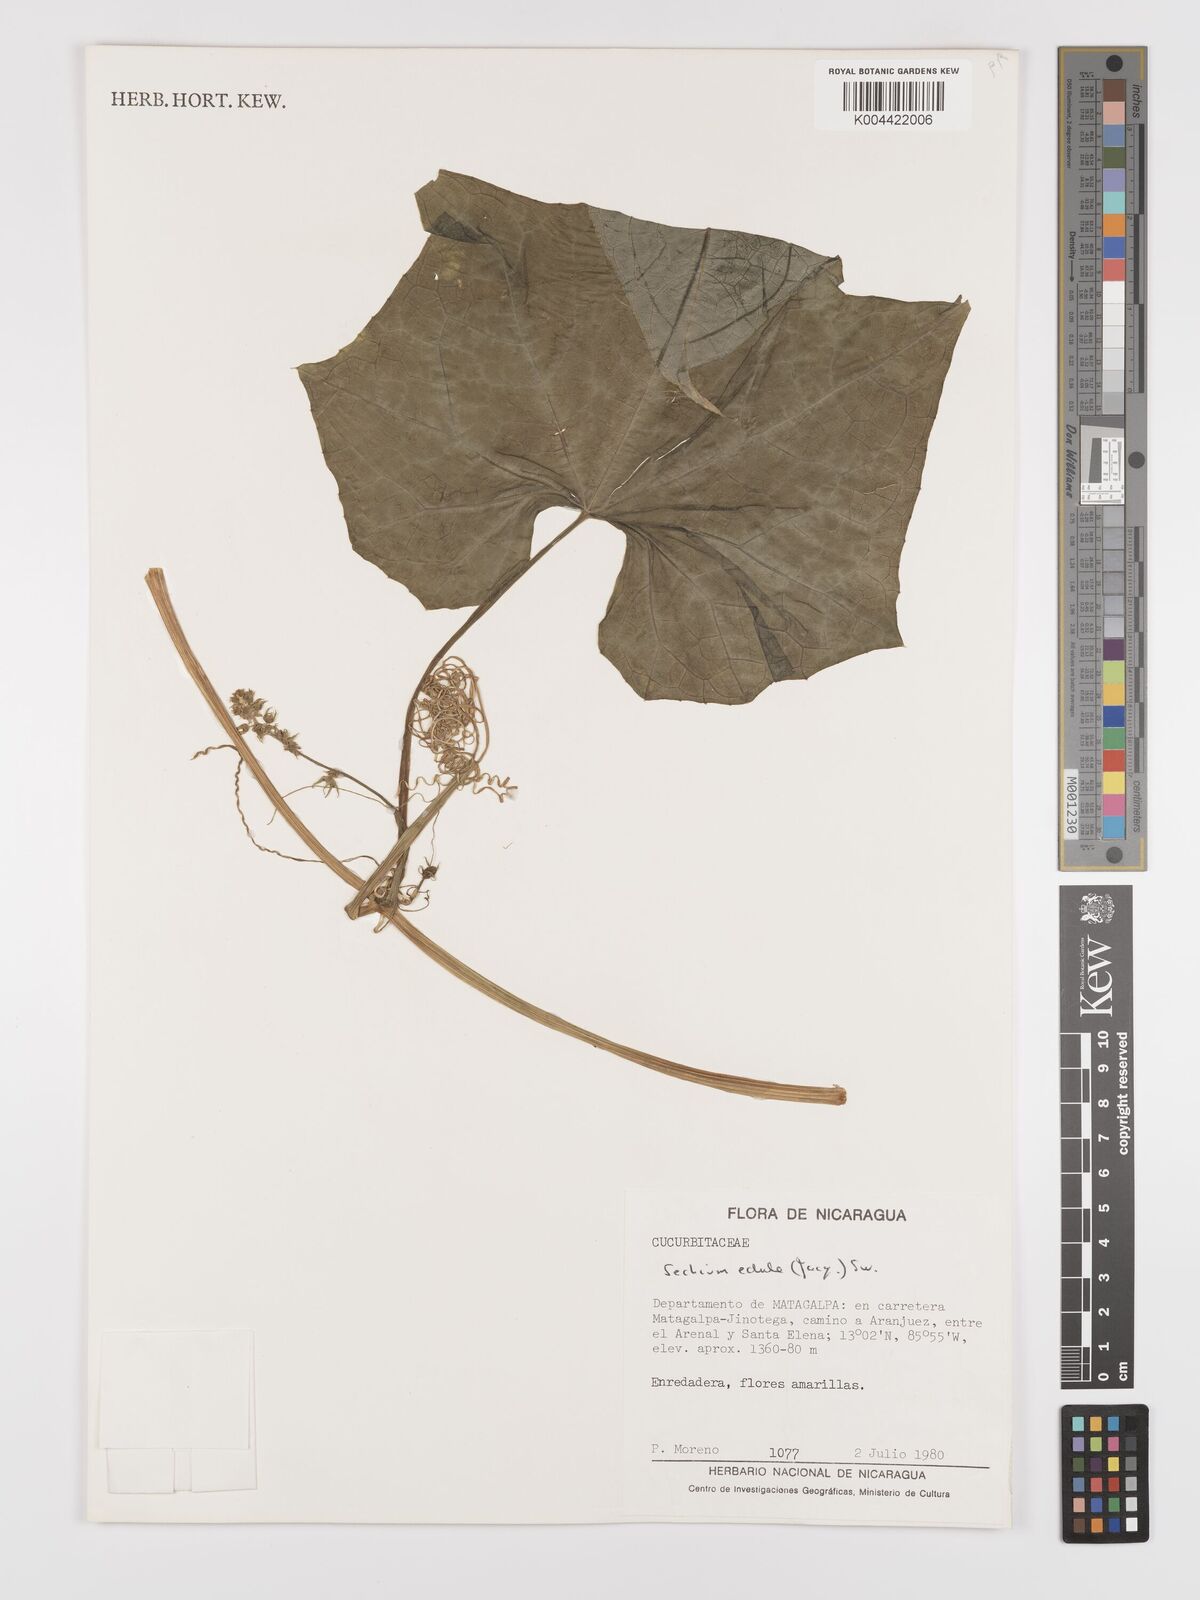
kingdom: Plantae
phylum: Tracheophyta
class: Magnoliopsida
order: Cucurbitales
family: Cucurbitaceae
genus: Sechium
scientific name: Sechium edule
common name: Chayote
